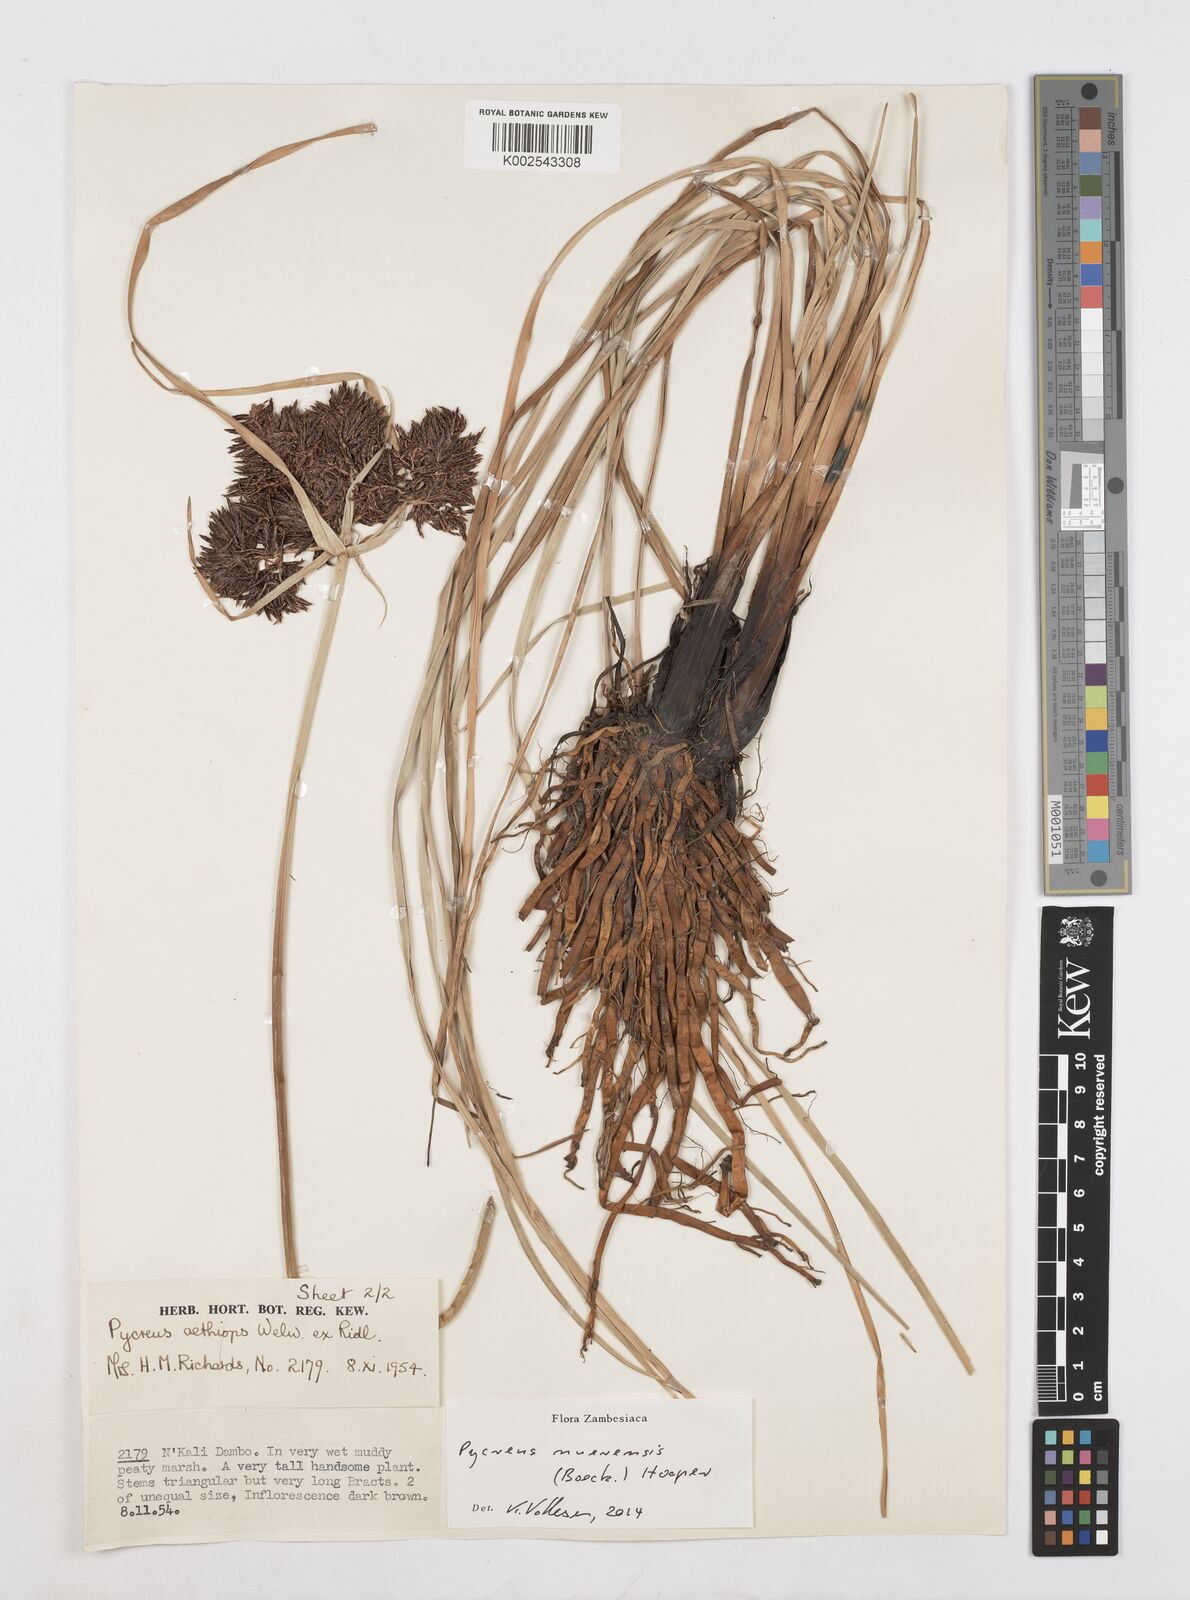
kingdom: Plantae
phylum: Tracheophyta
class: Liliopsida
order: Poales
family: Cyperaceae
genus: Cyperus
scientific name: Cyperus nuerensis
